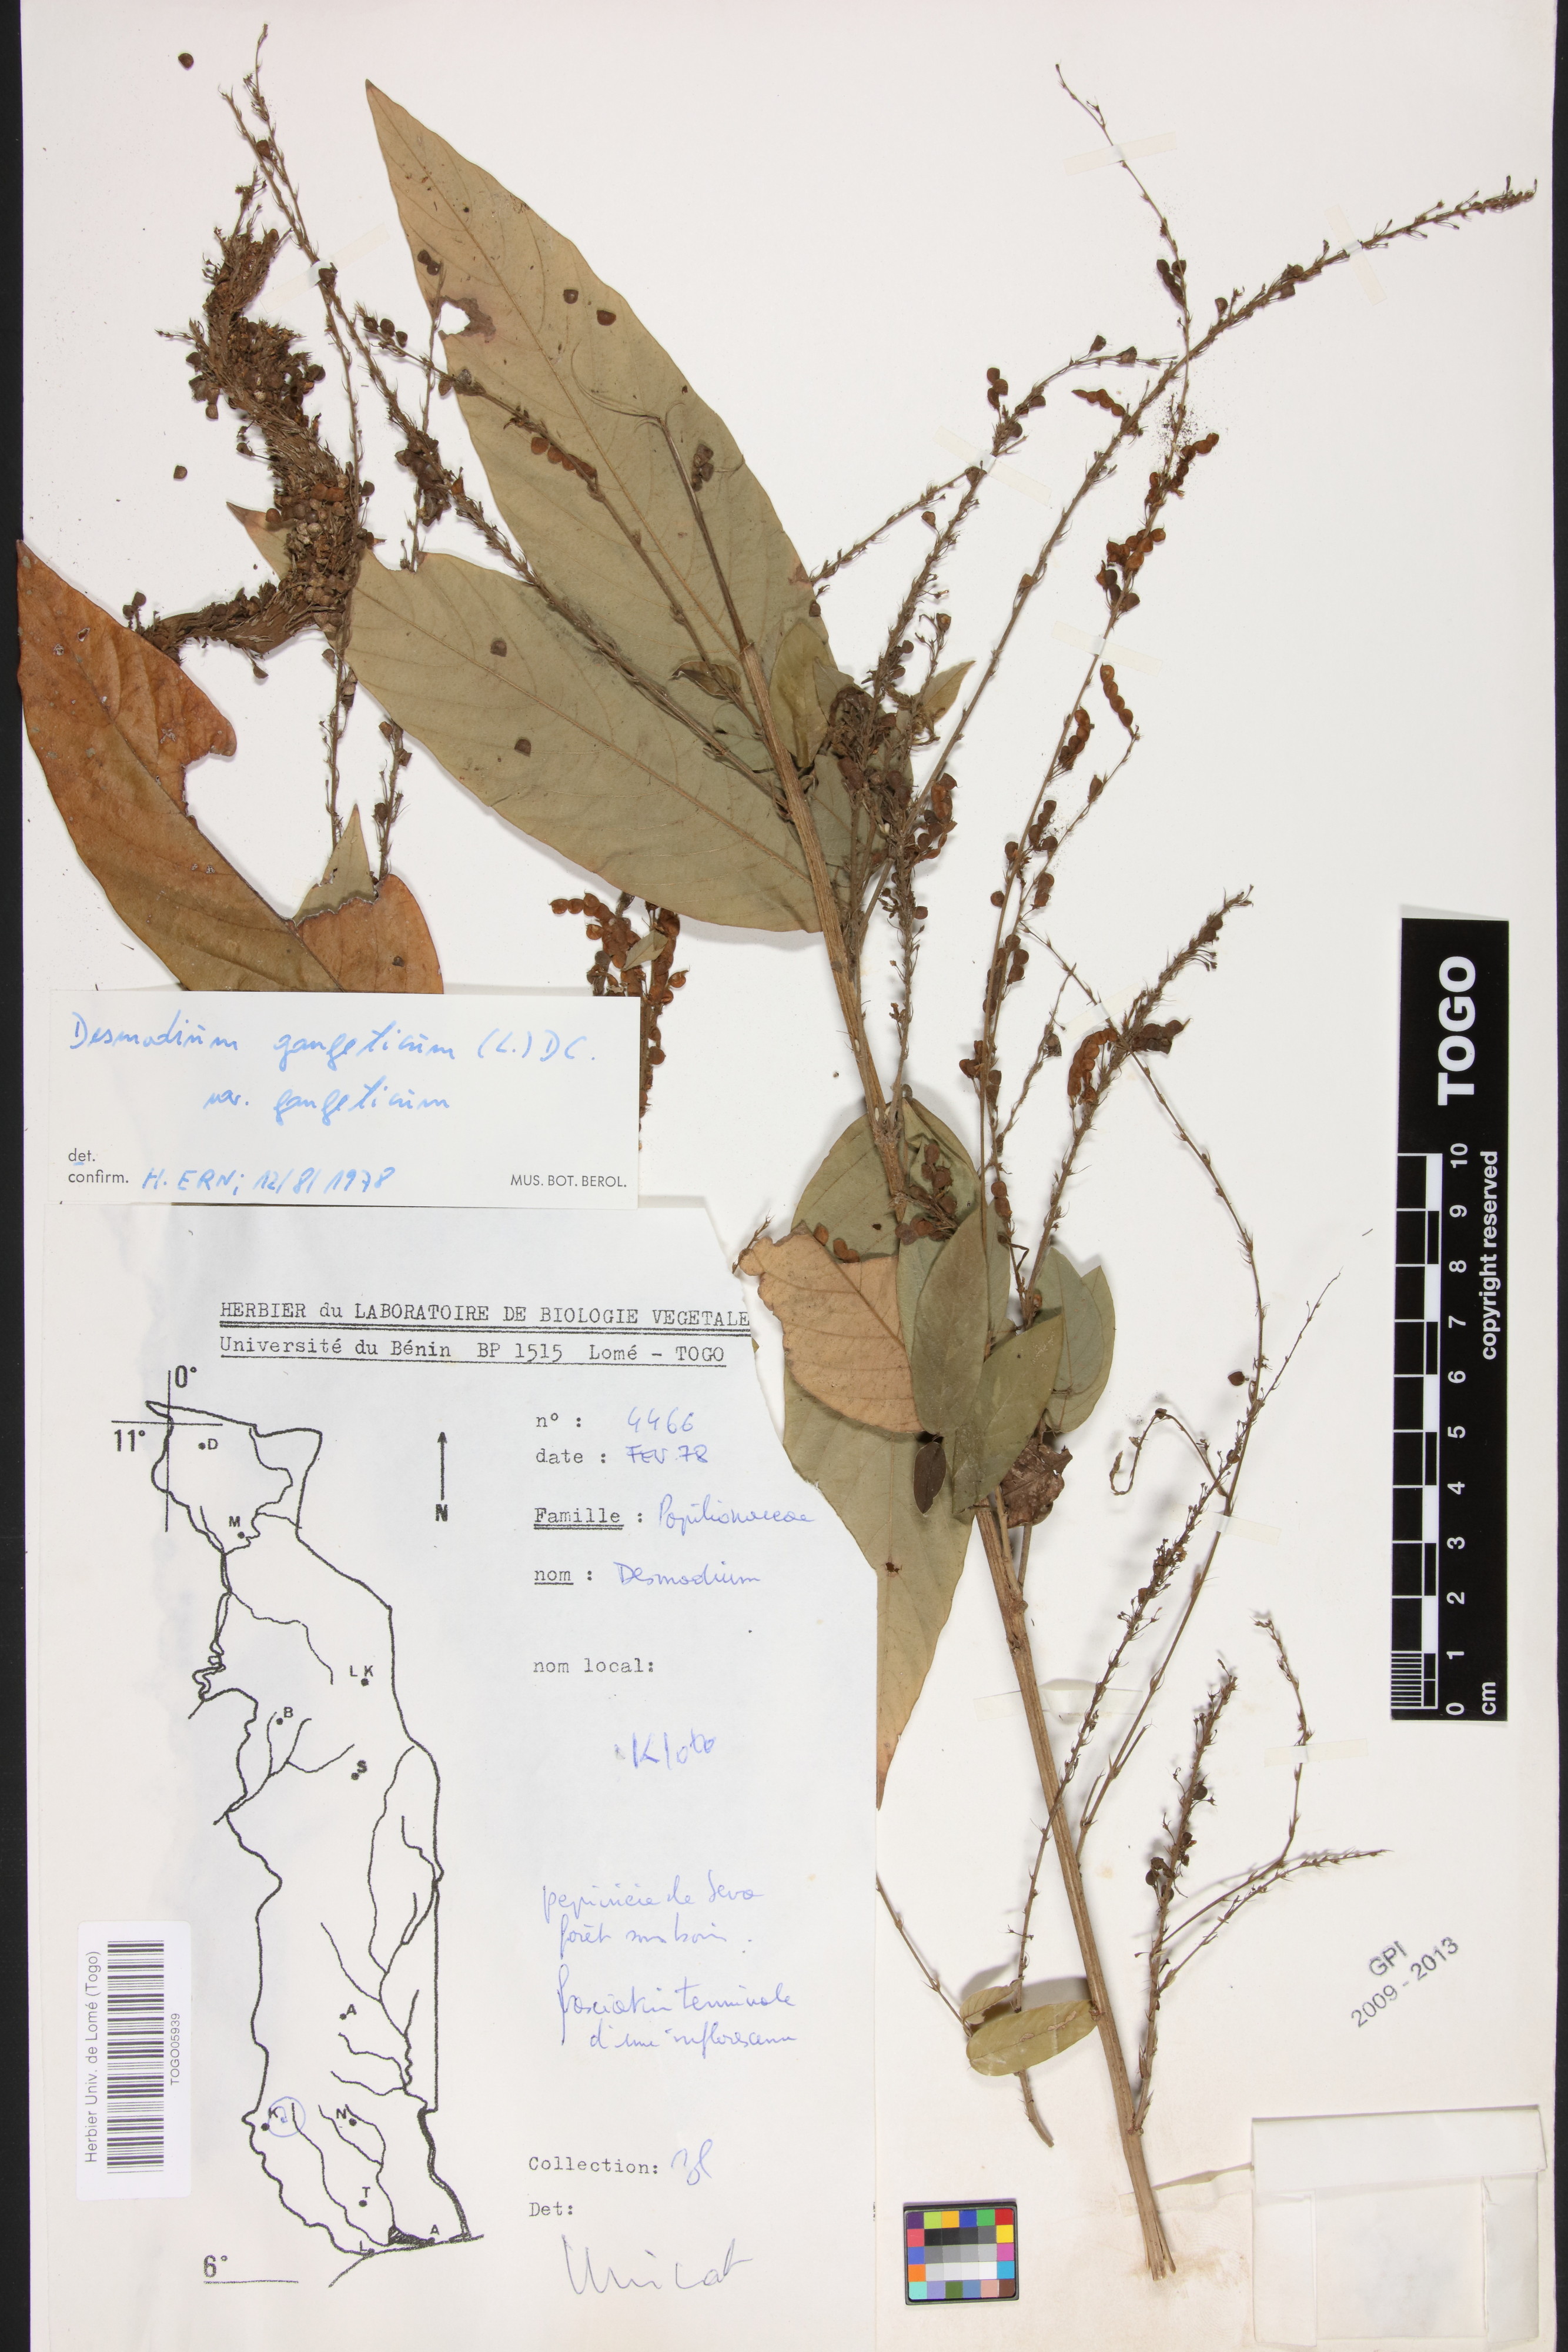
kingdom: Plantae
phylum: Tracheophyta
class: Magnoliopsida
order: Fabales
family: Fabaceae
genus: Pleurolobus
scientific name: Pleurolobus gangeticus
